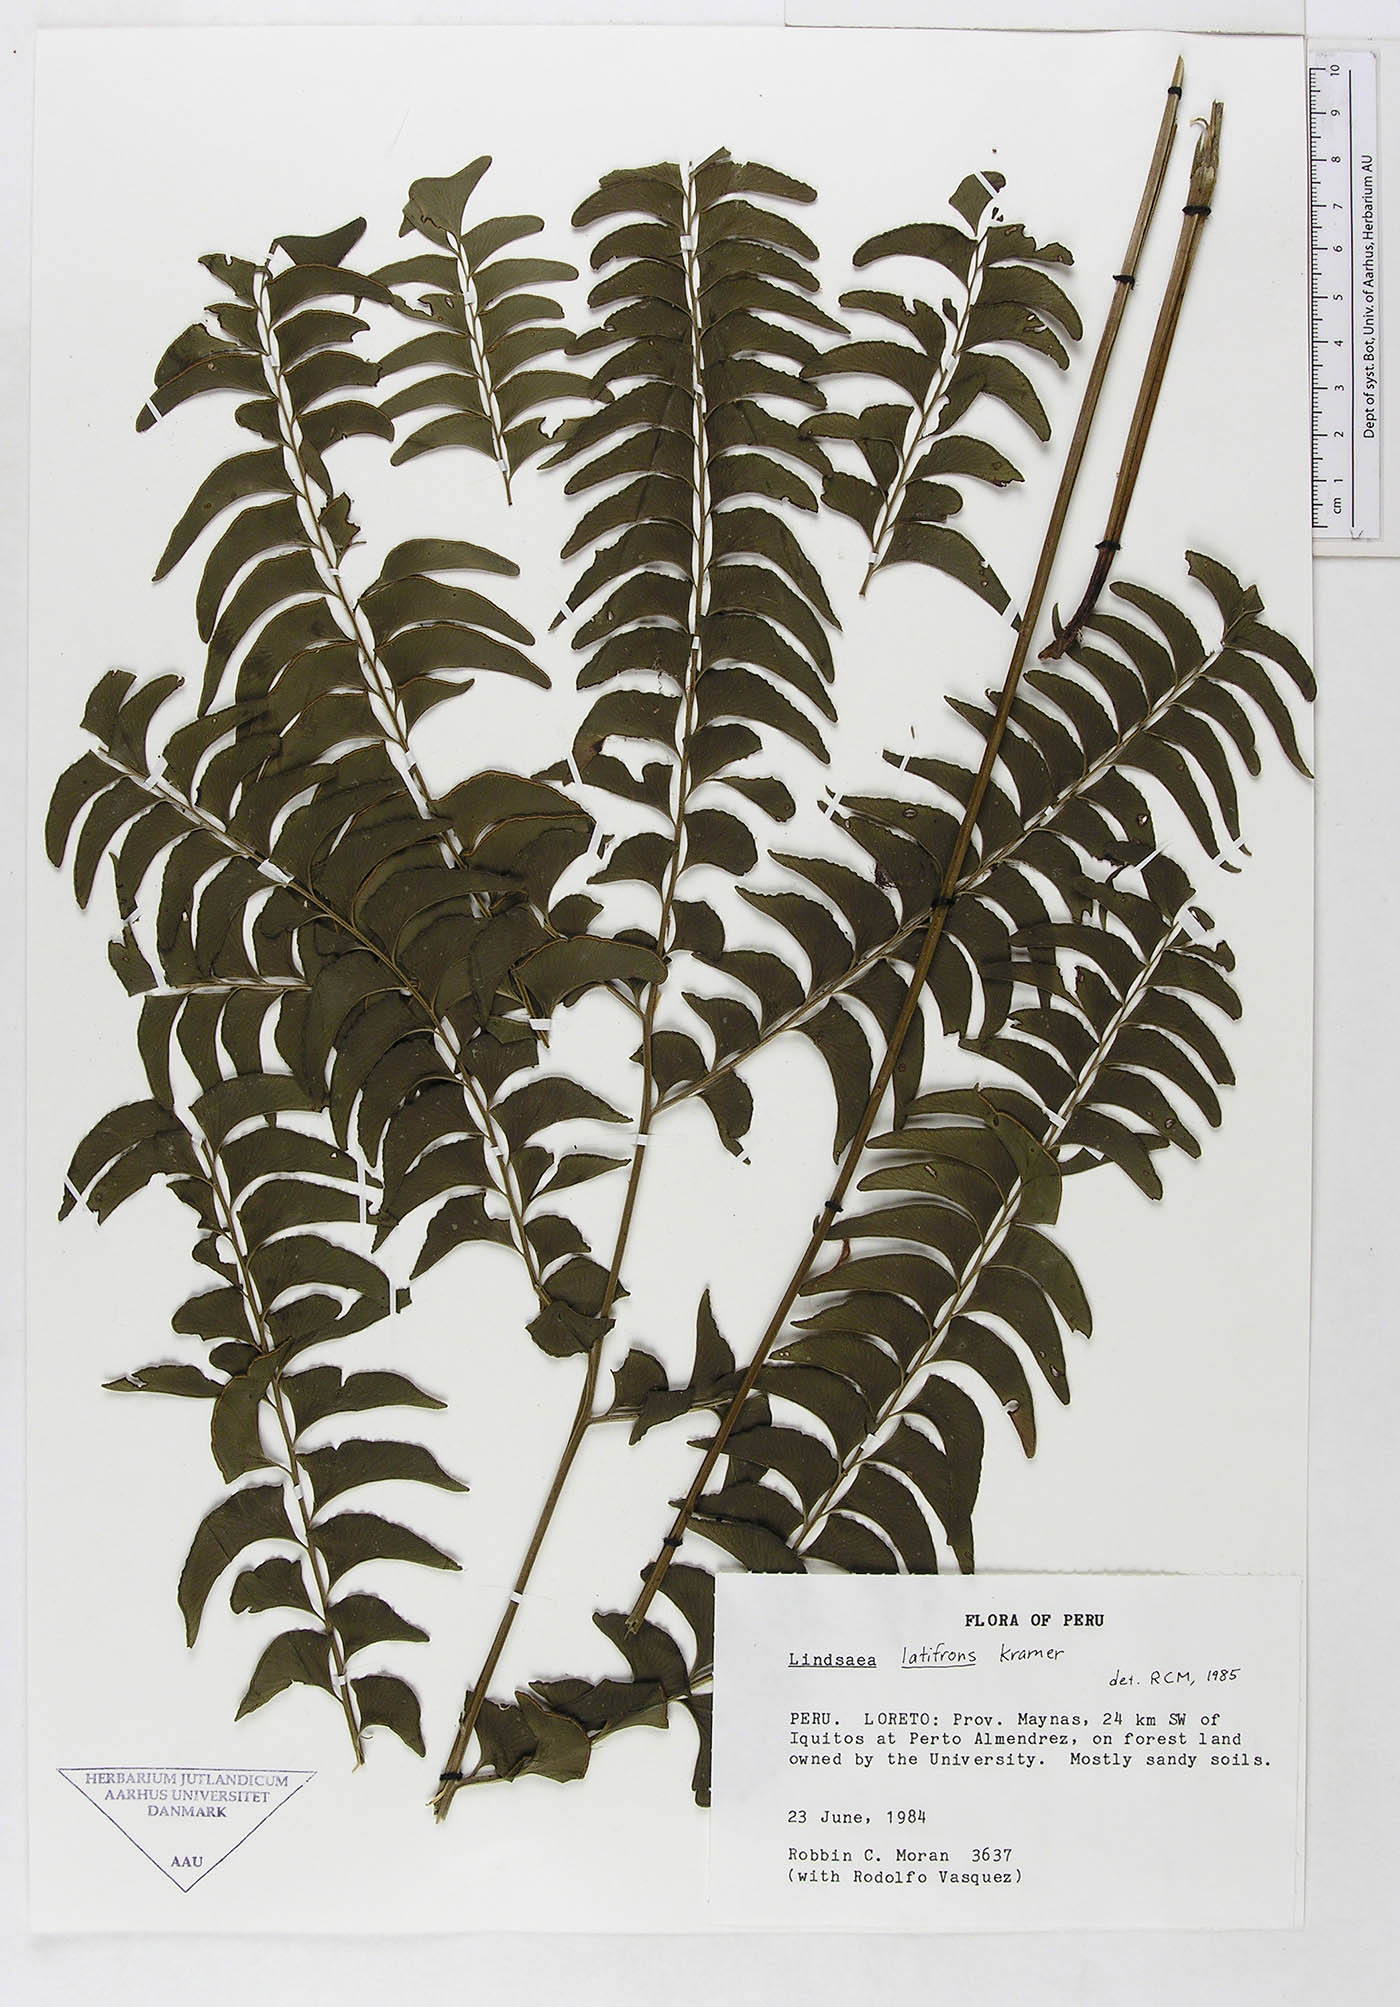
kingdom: Plantae
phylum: Tracheophyta
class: Polypodiopsida
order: Polypodiales
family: Lindsaeaceae
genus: Lindsaea
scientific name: Lindsaea latifrons
